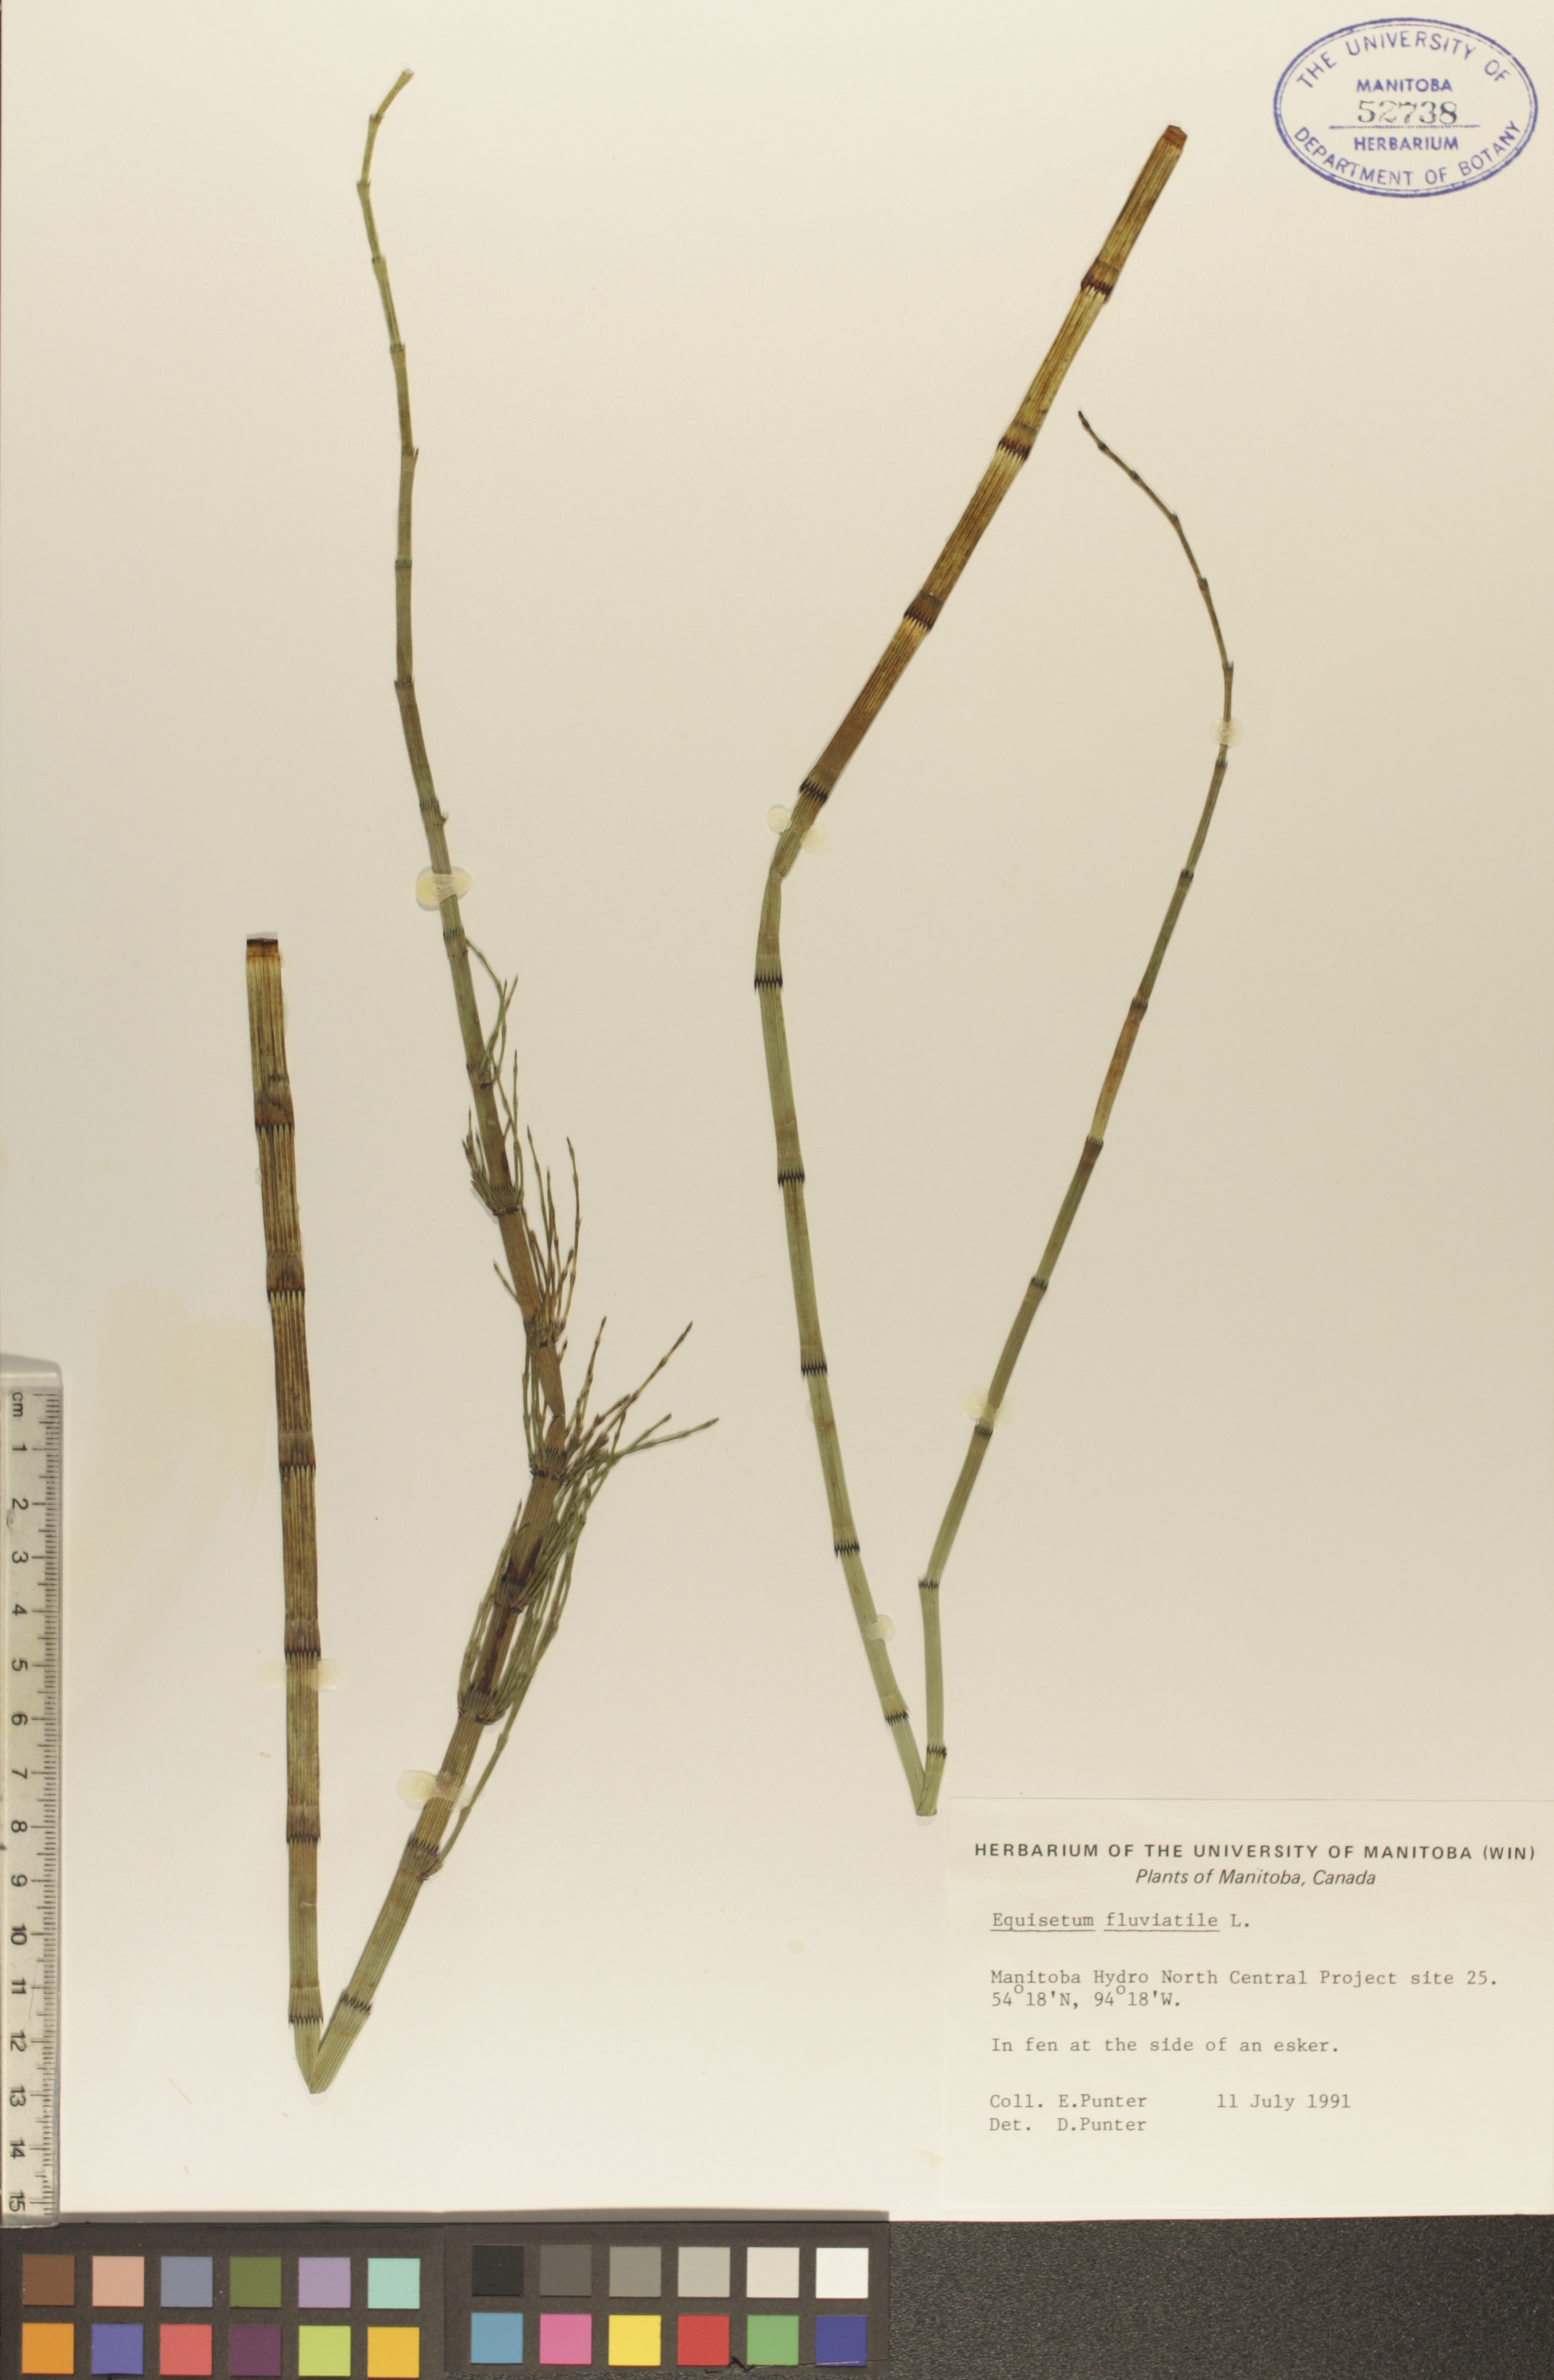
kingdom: Plantae
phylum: Tracheophyta
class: Polypodiopsida
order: Equisetales
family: Equisetaceae
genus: Equisetum
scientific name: Equisetum fluviatile
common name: Water horsetail
